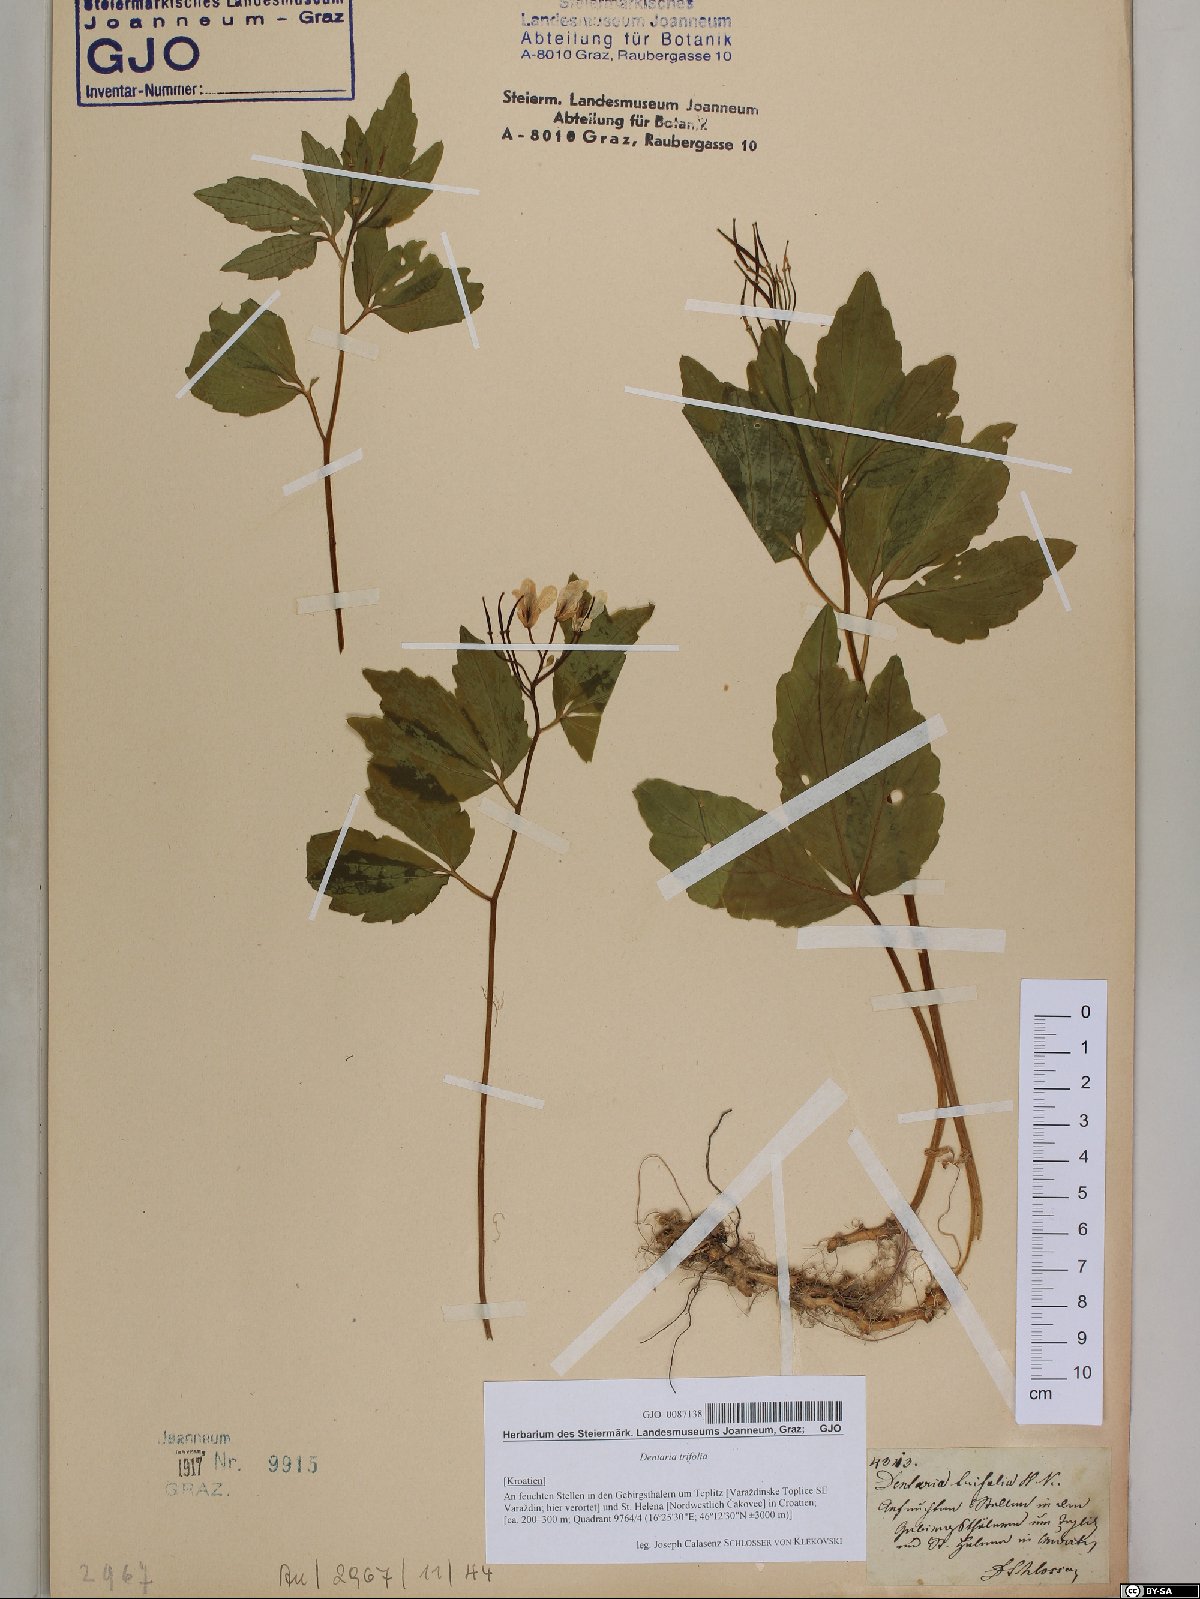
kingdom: Plantae
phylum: Tracheophyta
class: Magnoliopsida
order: Brassicales
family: Brassicaceae
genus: Cardamine
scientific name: Cardamine waldsteinii
